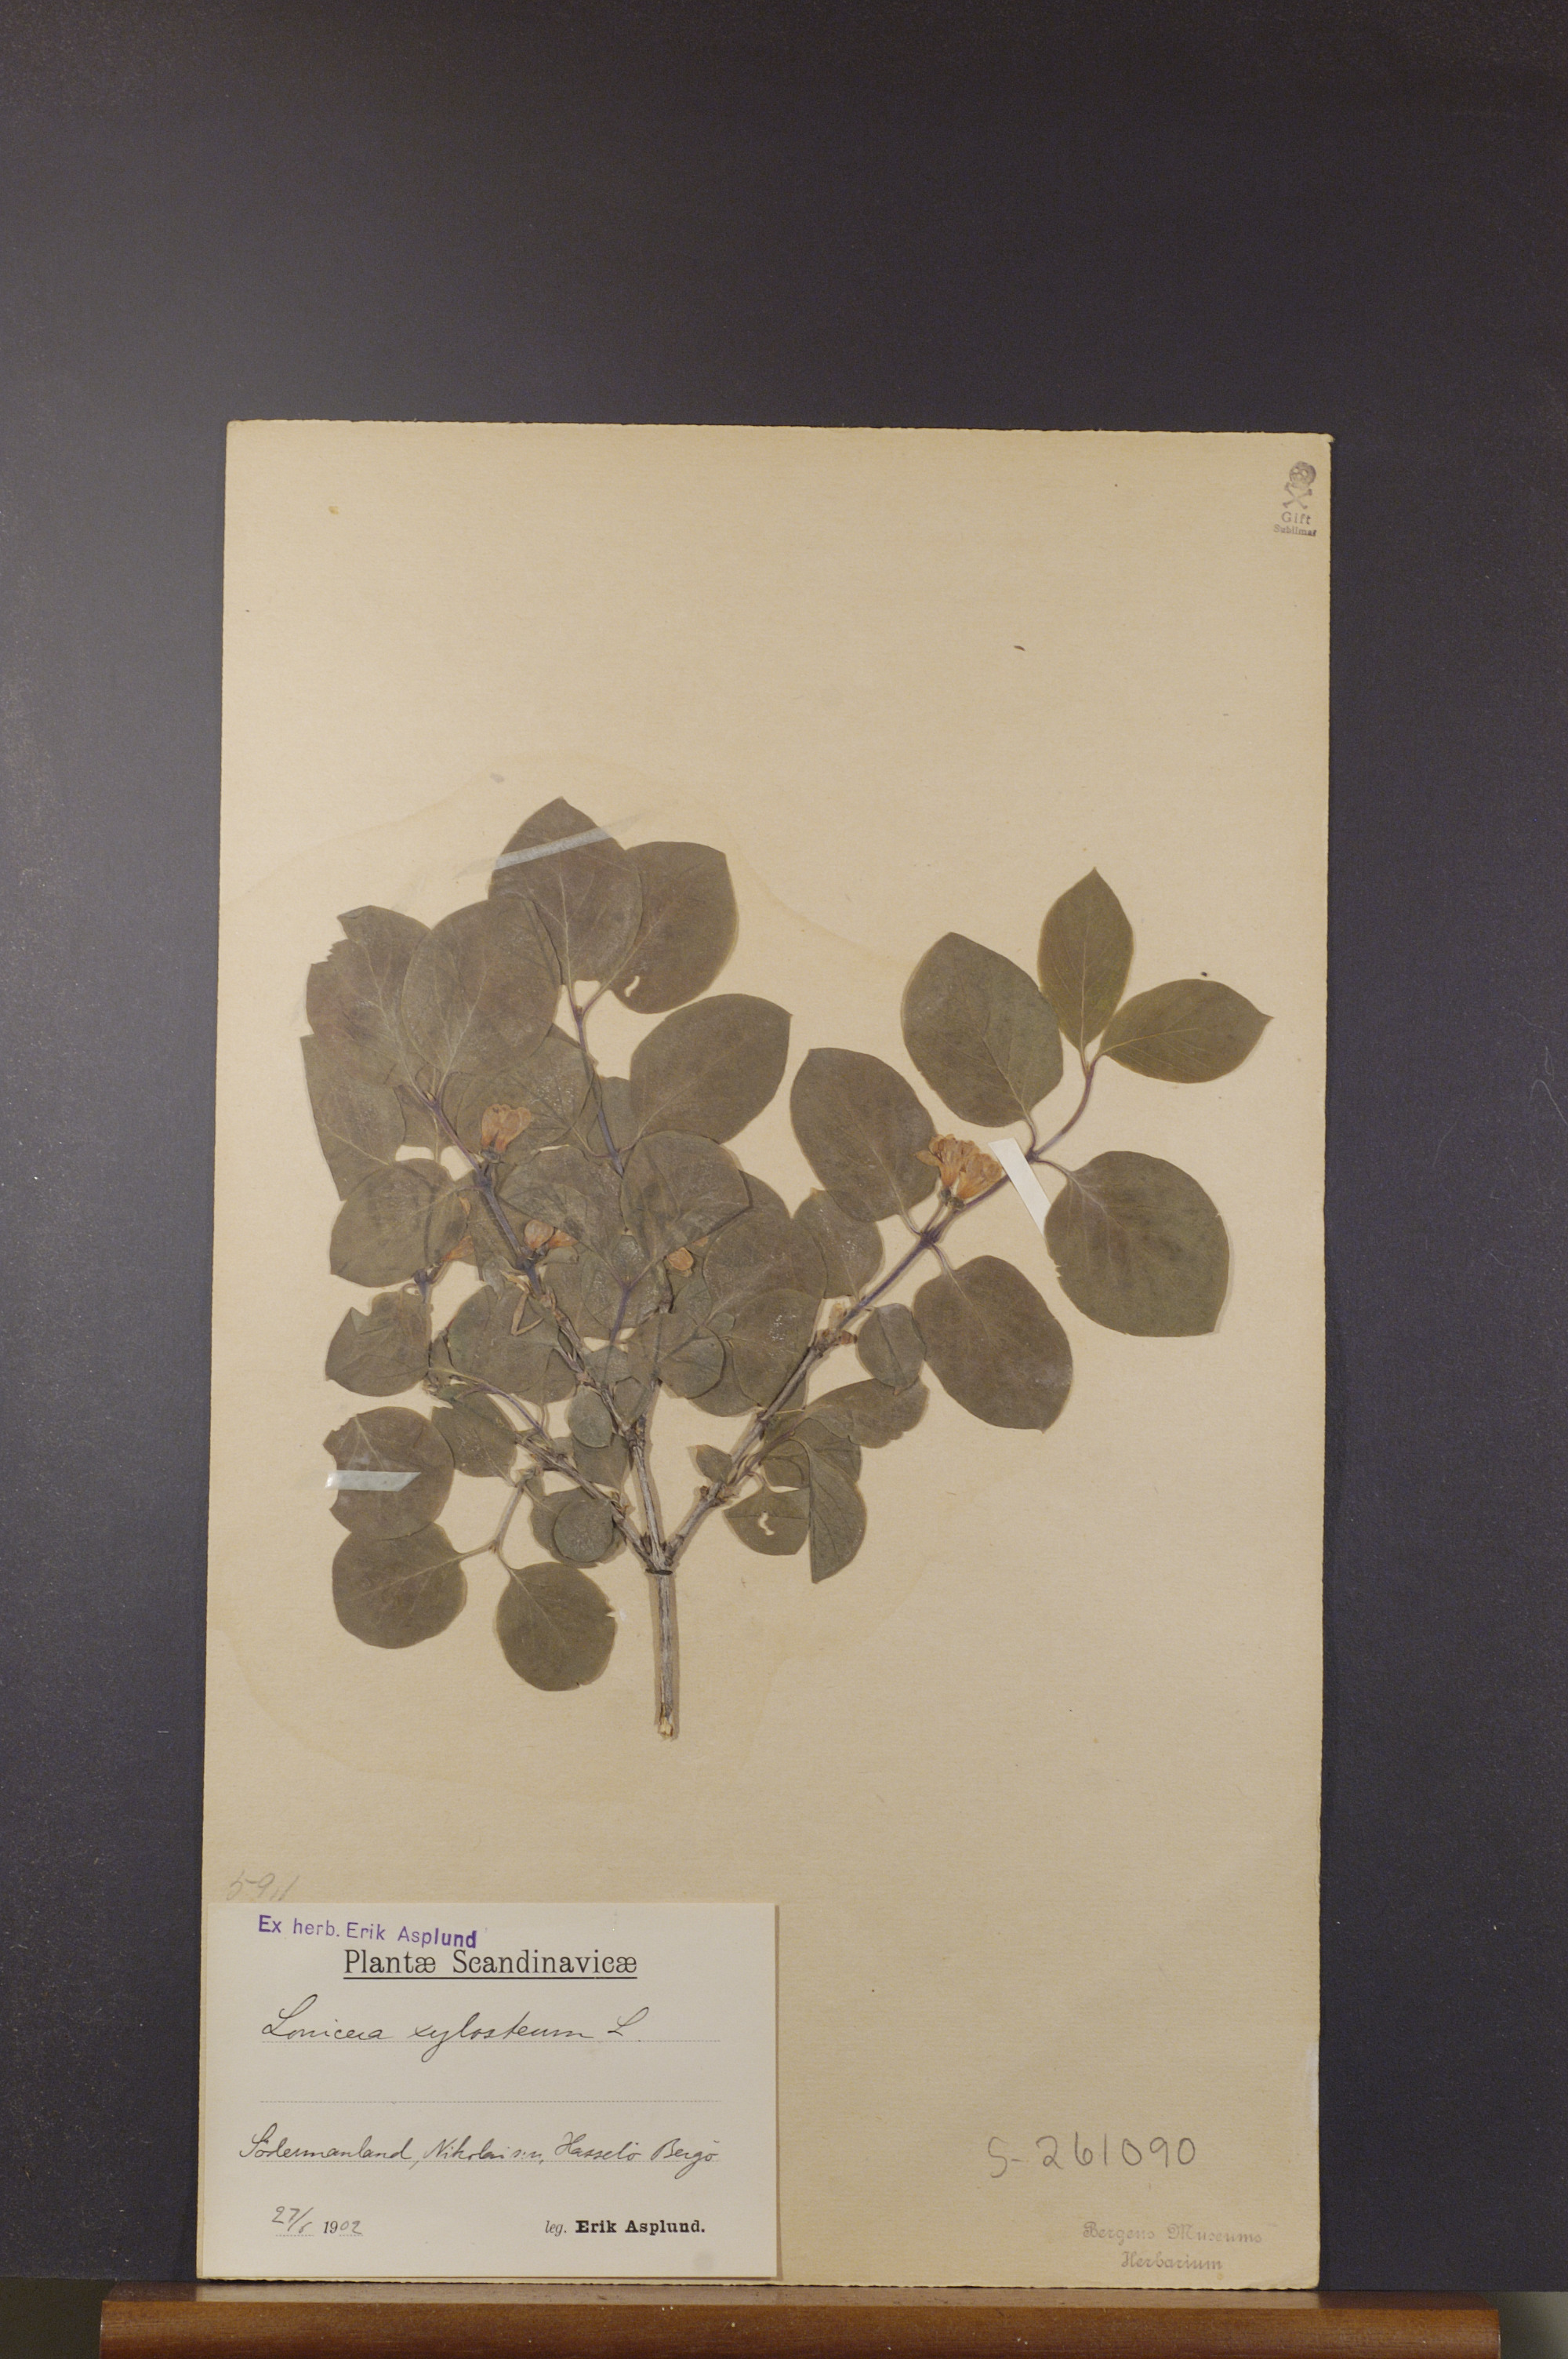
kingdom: Plantae
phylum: Tracheophyta
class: Magnoliopsida
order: Dipsacales
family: Caprifoliaceae
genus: Lonicera
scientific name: Lonicera xylosteum
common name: Fly honeysuckle
